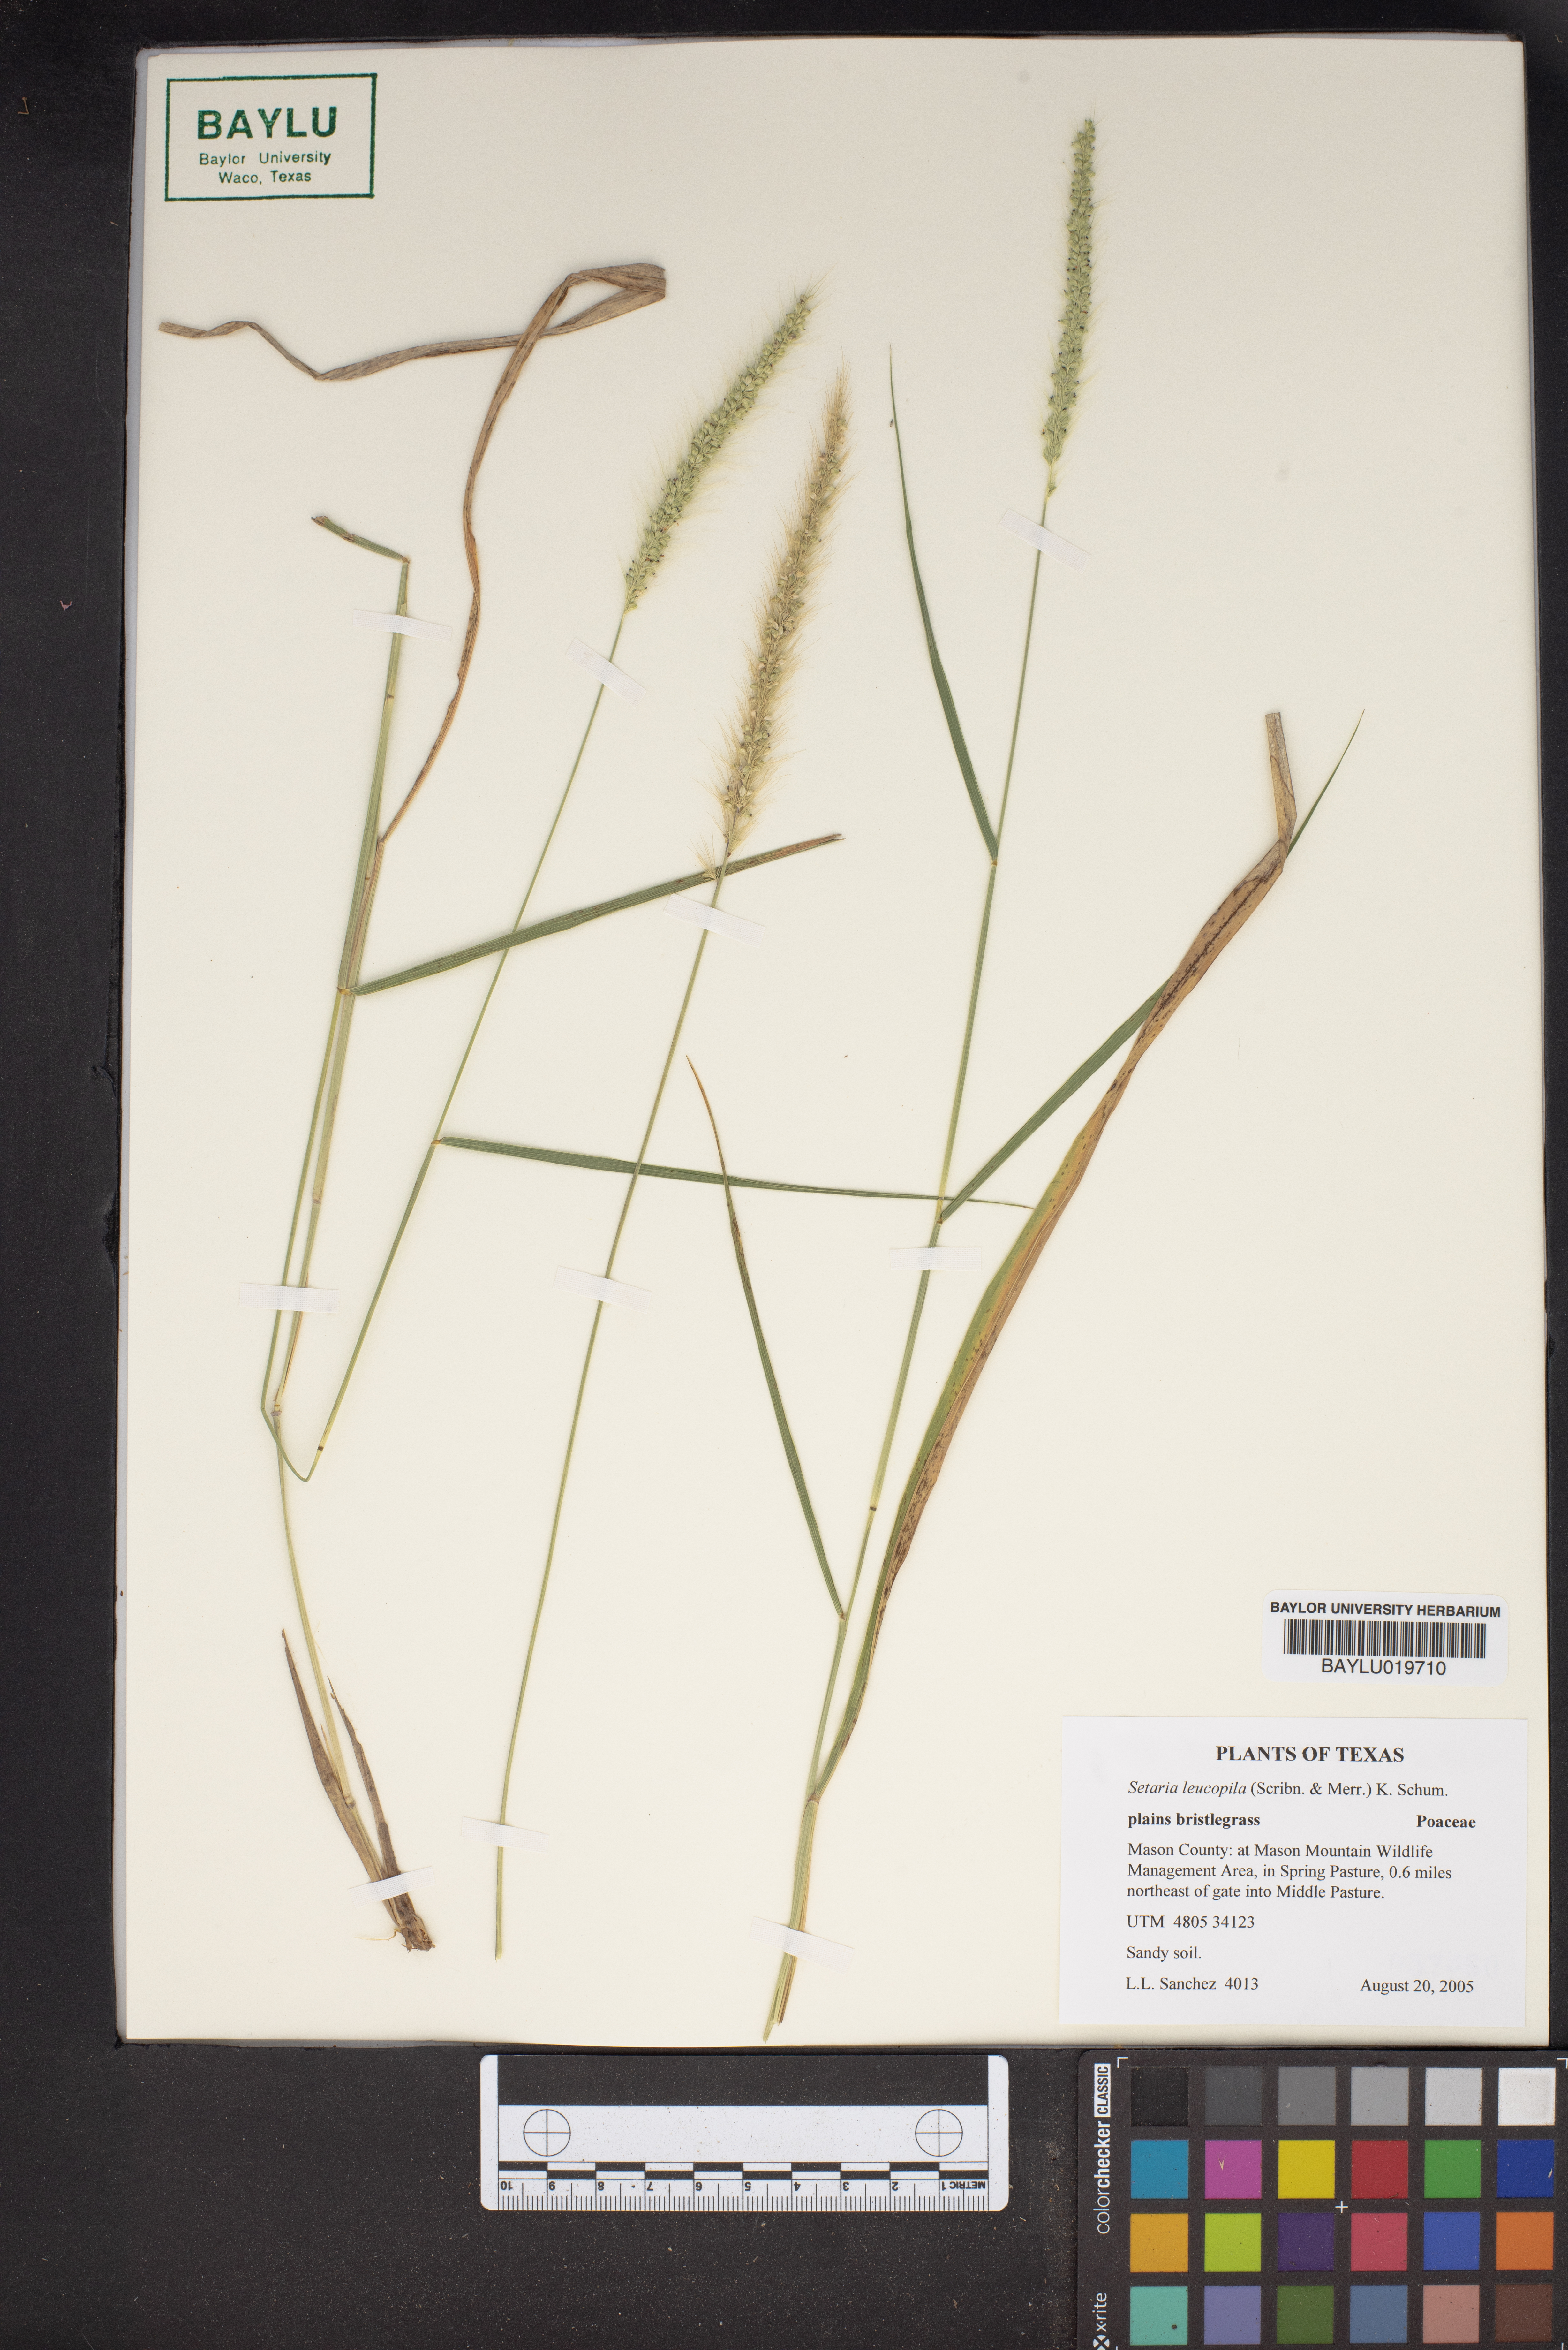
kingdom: Plantae
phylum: Tracheophyta
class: Liliopsida
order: Poales
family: Poaceae
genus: Setaria
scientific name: Setaria leucopila
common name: Plains bristle grass
